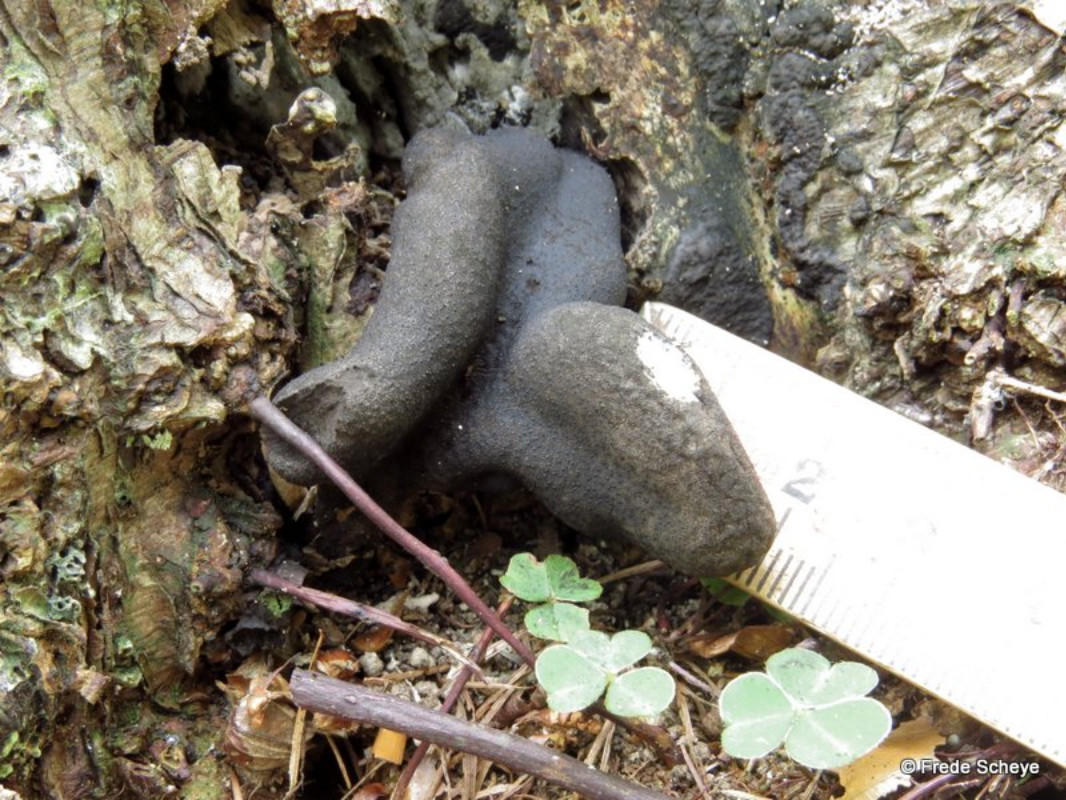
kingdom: Fungi
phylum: Ascomycota
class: Sordariomycetes
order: Xylariales
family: Xylariaceae
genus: Xylaria
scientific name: Xylaria polymorpha
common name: kølle-stødsvamp
